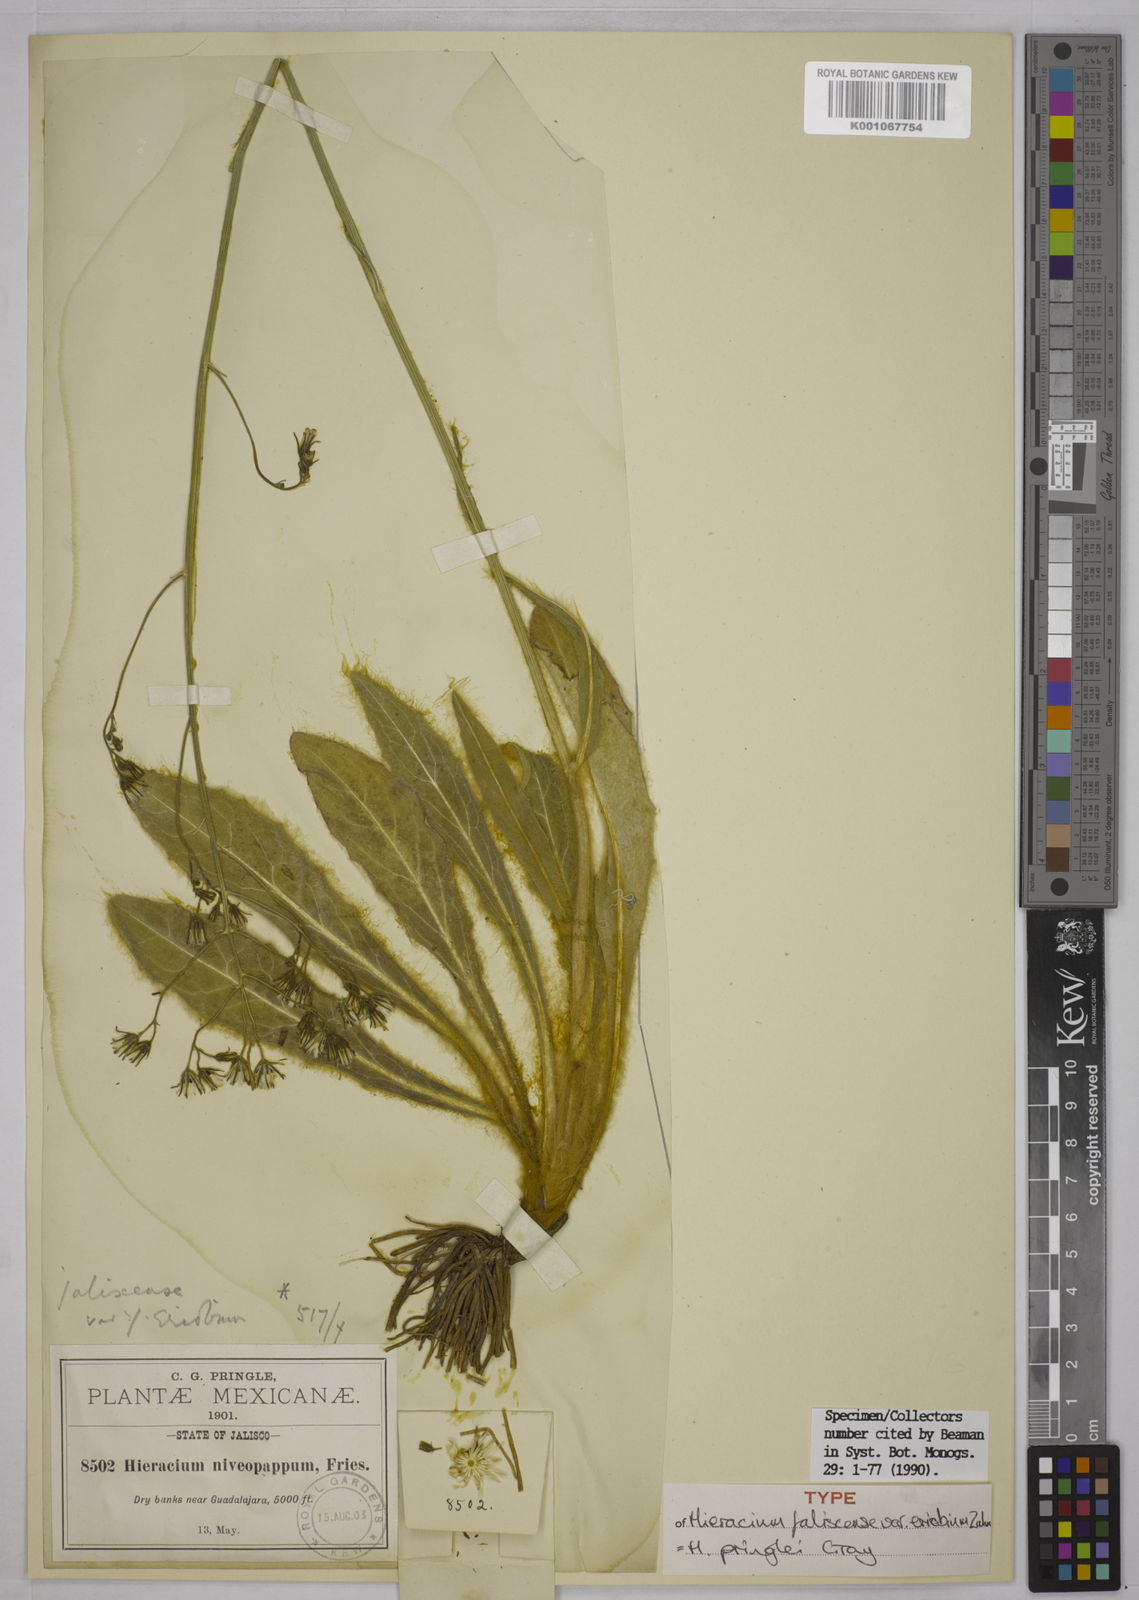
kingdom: Plantae
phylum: Tracheophyta
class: Magnoliopsida
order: Asterales
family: Asteraceae
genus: Hieracium
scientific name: Hieracium pringlei
